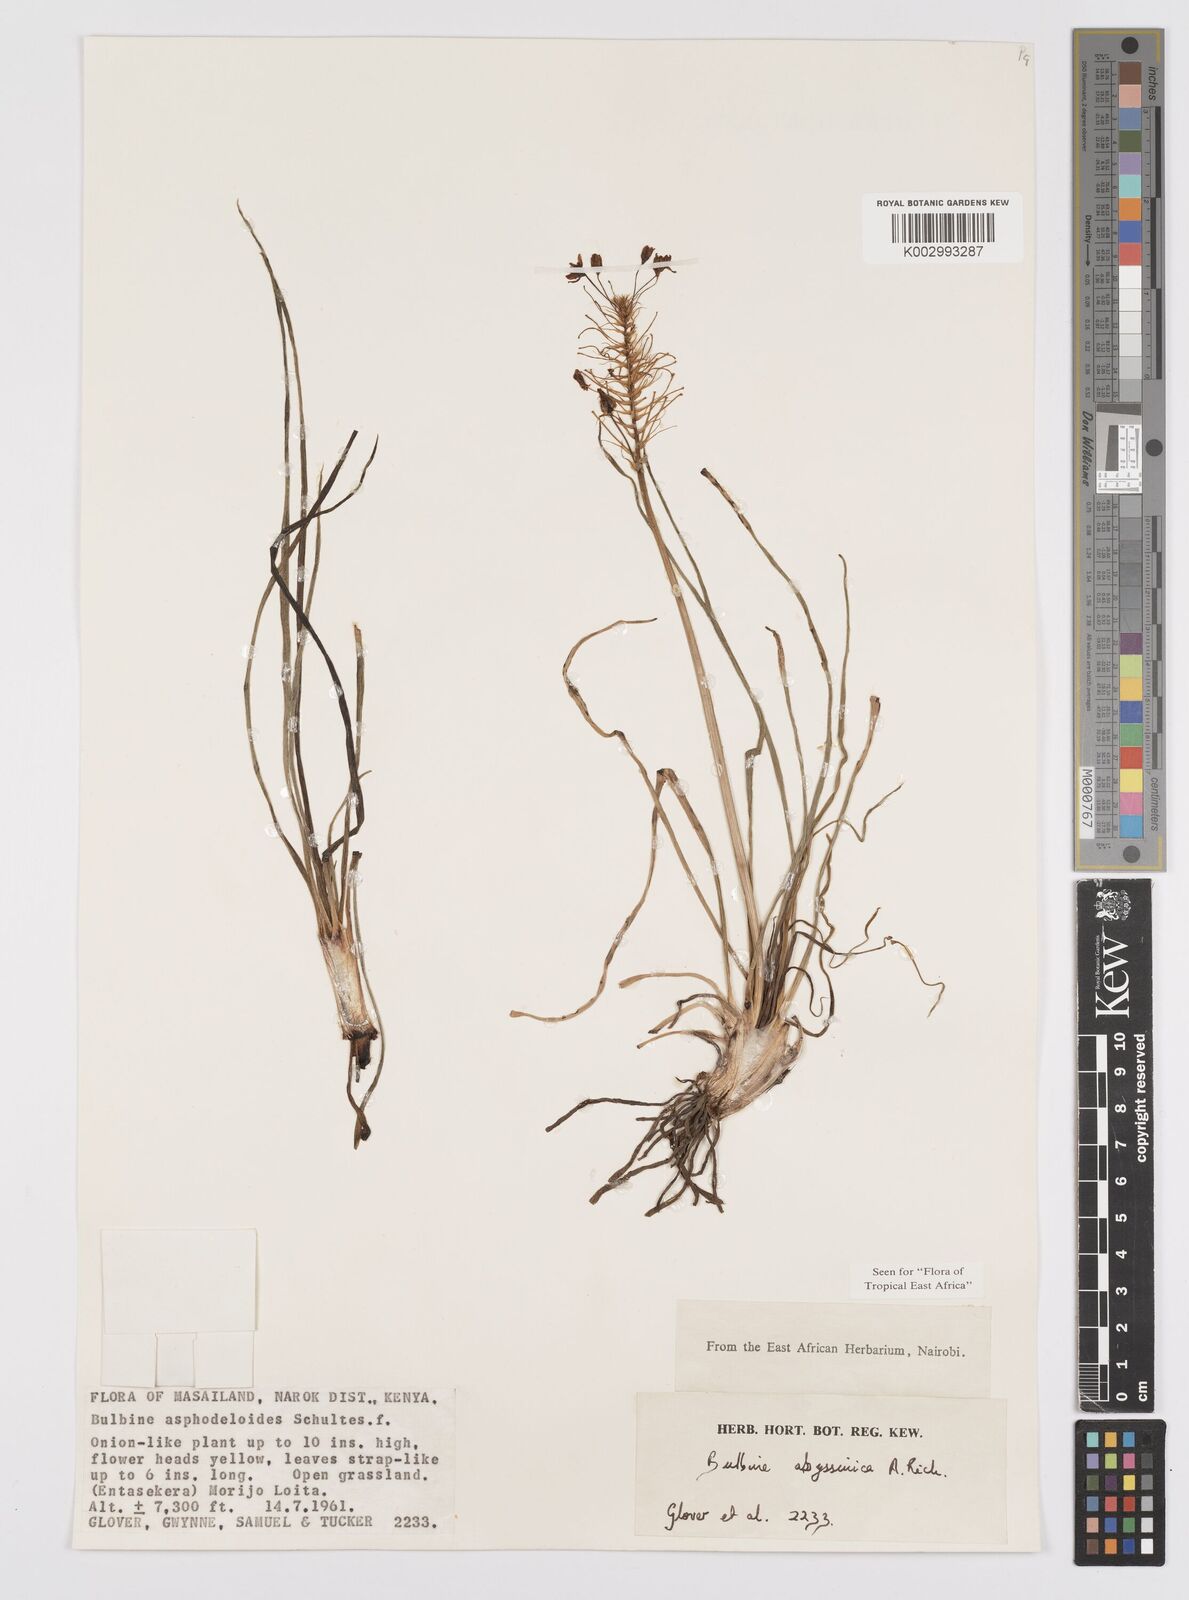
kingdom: Plantae
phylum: Tracheophyta
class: Liliopsida
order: Asparagales
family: Asphodelaceae
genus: Bulbine
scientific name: Bulbine abyssinica
